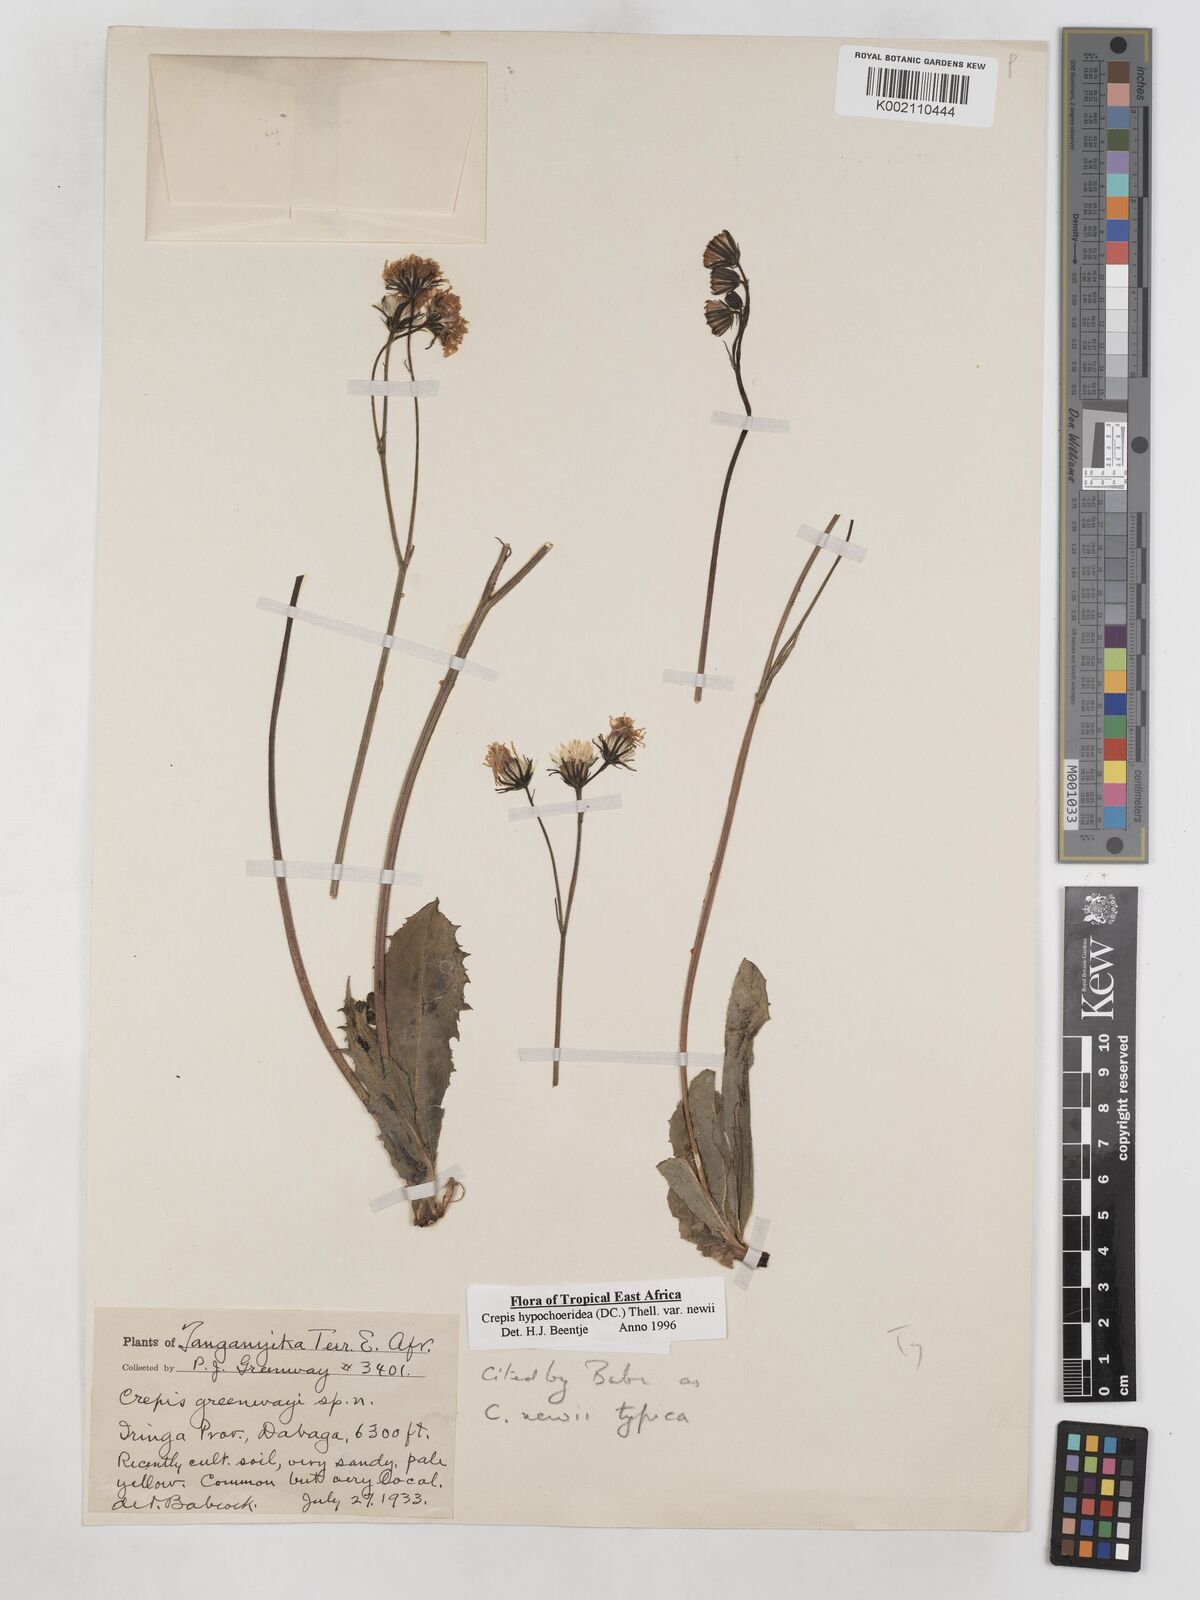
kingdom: Plantae
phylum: Tracheophyta
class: Magnoliopsida
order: Asterales
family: Asteraceae
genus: Crepis
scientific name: Crepis hypochoeridea
